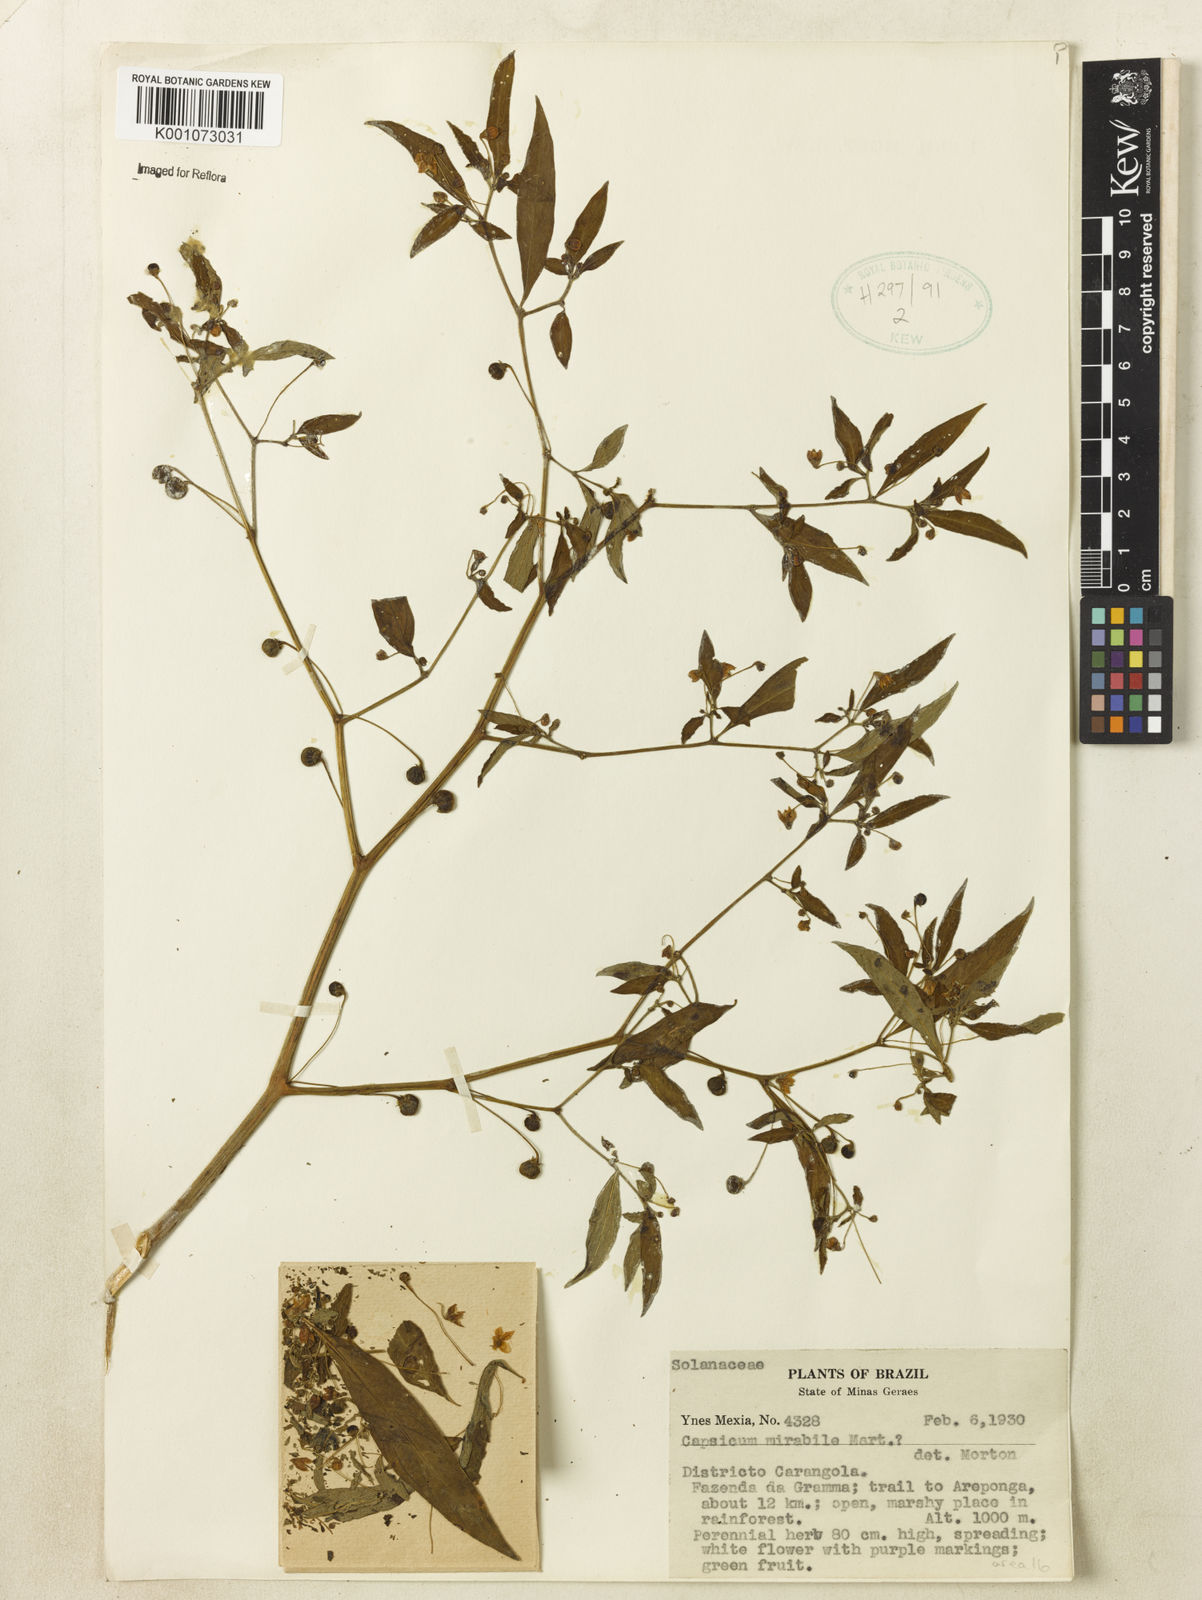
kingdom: Plantae
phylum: Tracheophyta
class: Magnoliopsida
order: Solanales
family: Solanaceae
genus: Capsicum
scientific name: Capsicum
